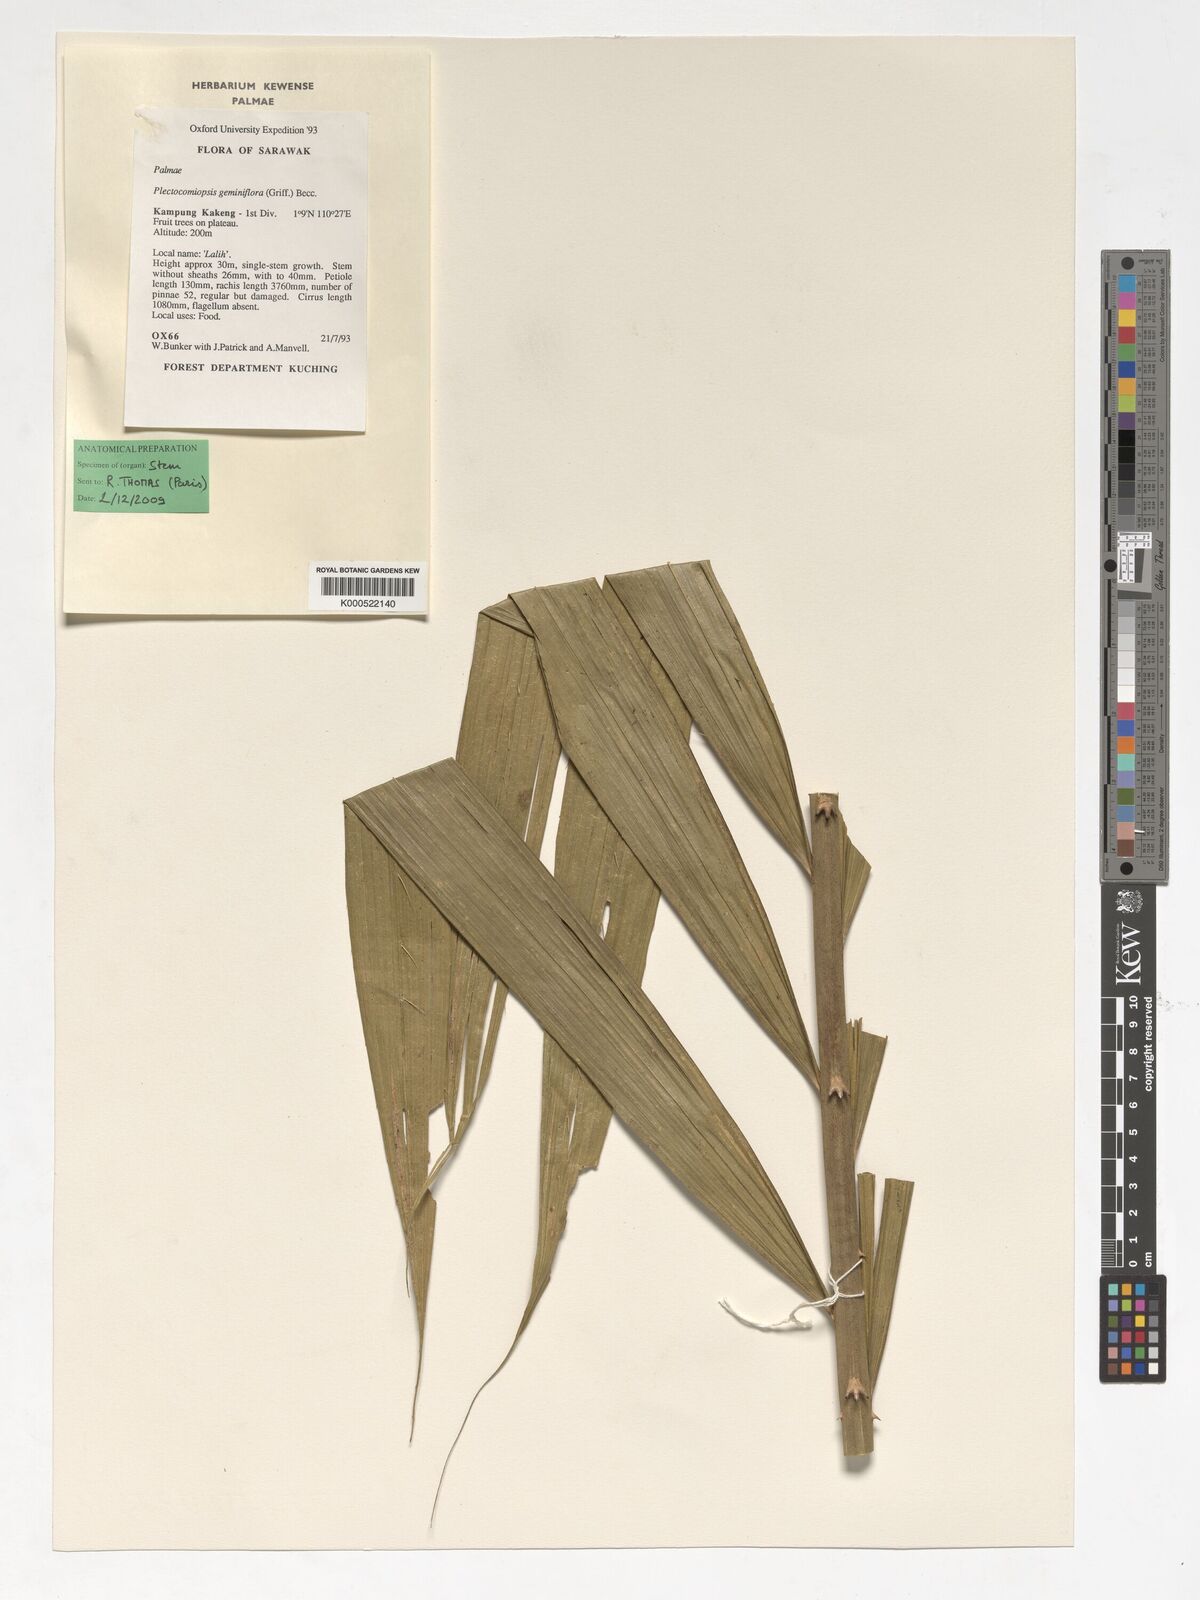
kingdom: Plantae
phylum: Tracheophyta
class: Liliopsida
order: Arecales
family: Arecaceae
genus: Plectocomiopsis
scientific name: Plectocomiopsis geminiflora
